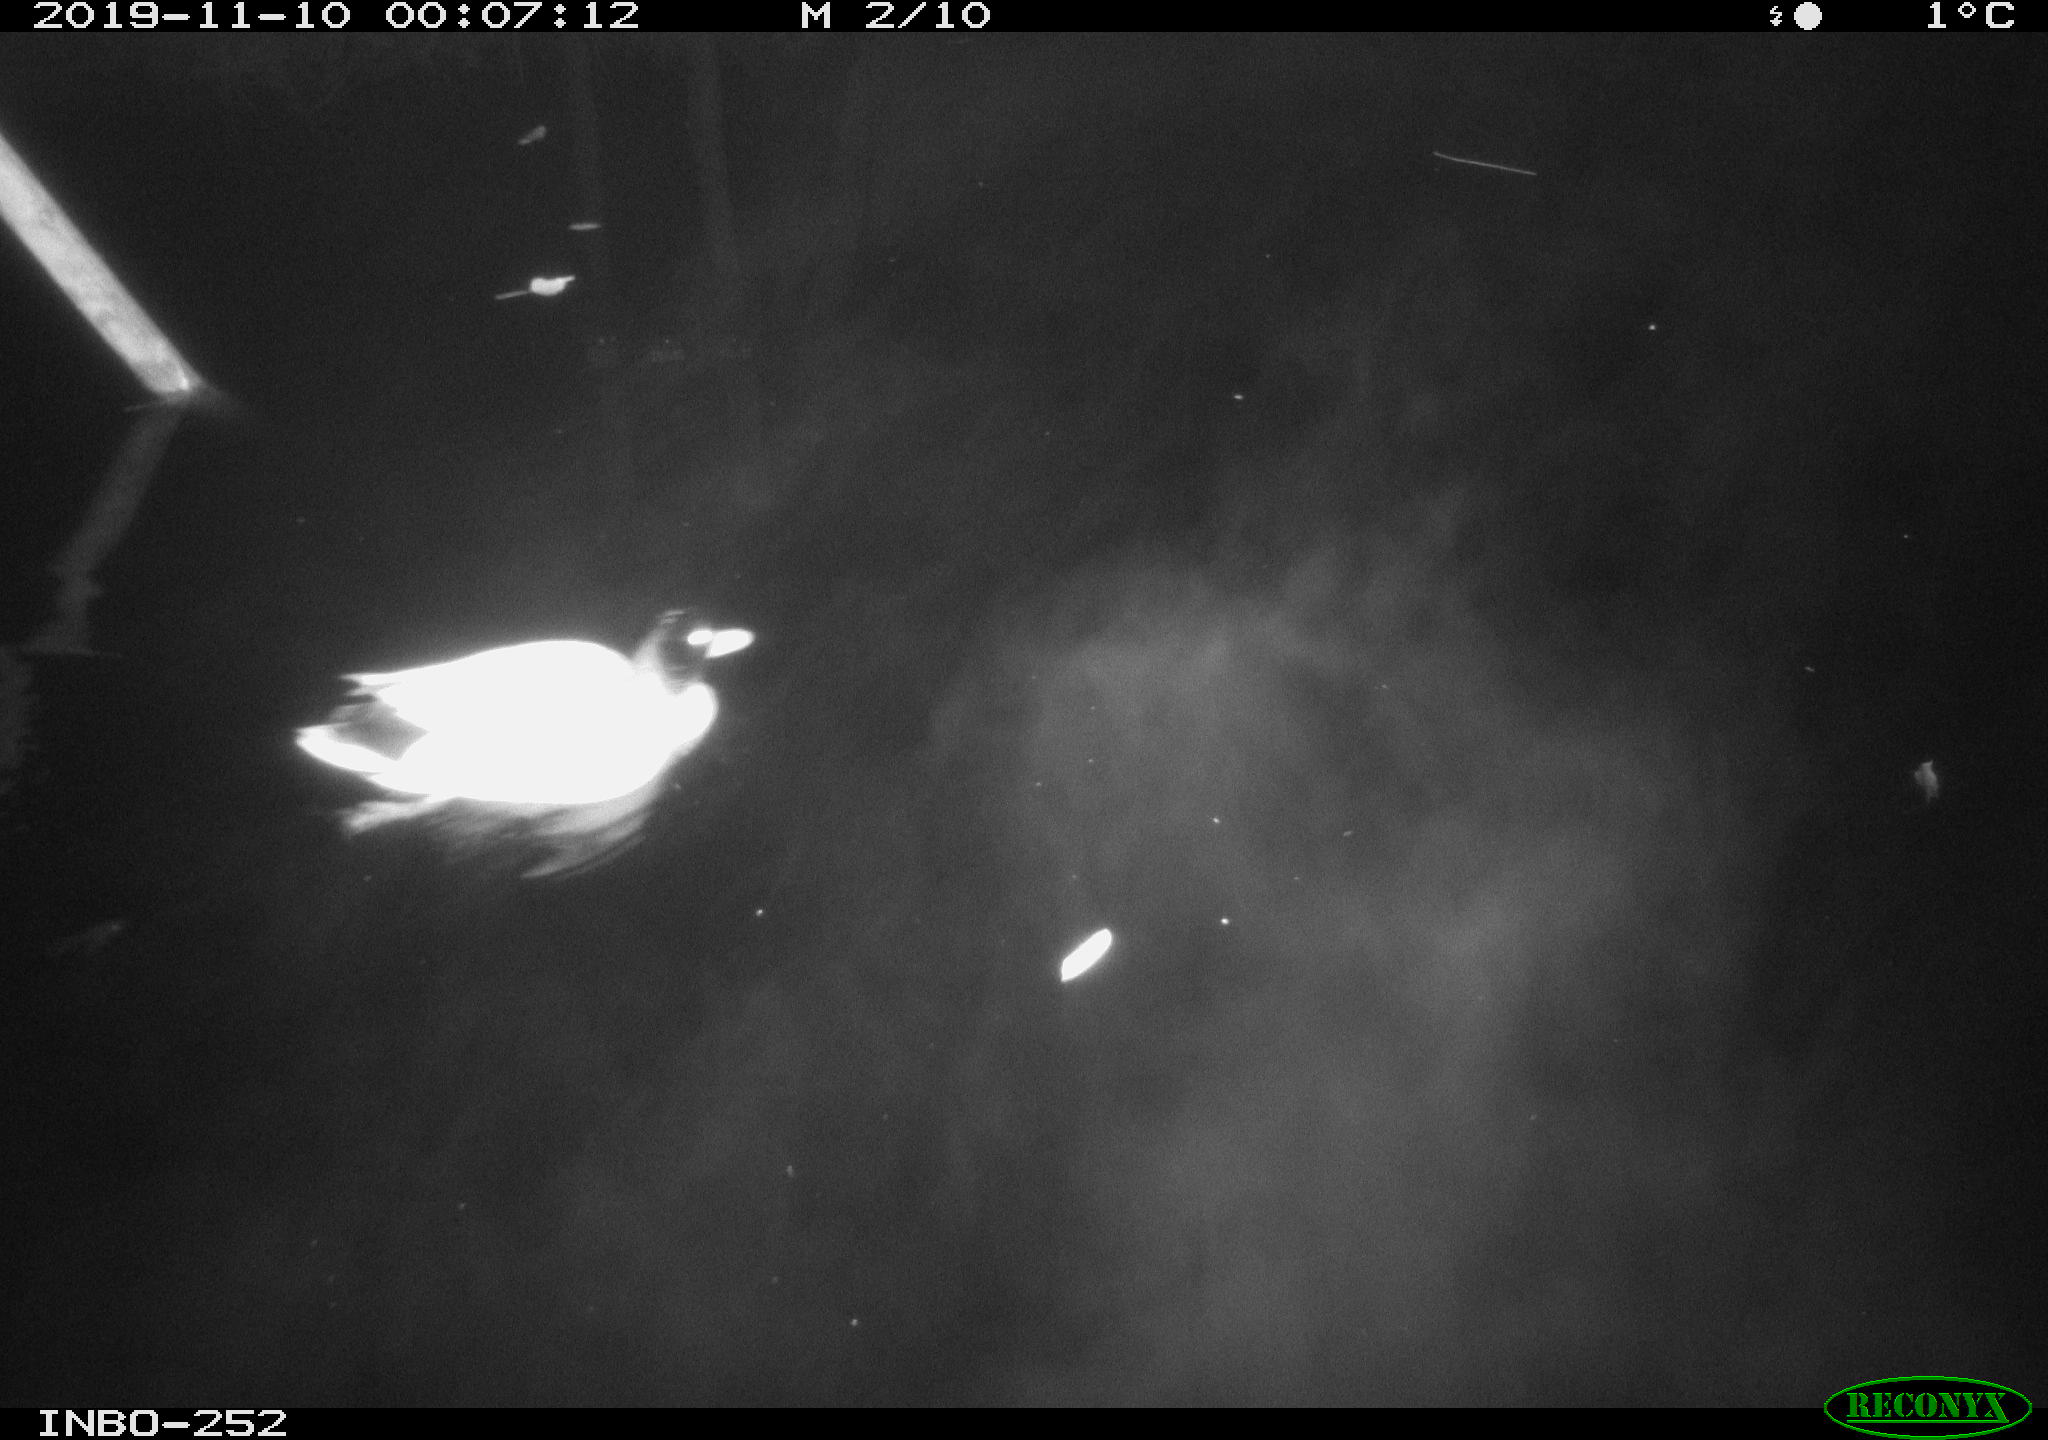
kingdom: Animalia
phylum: Chordata
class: Aves
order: Anseriformes
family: Anatidae
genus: Anas
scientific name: Anas platyrhynchos
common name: Mallard
